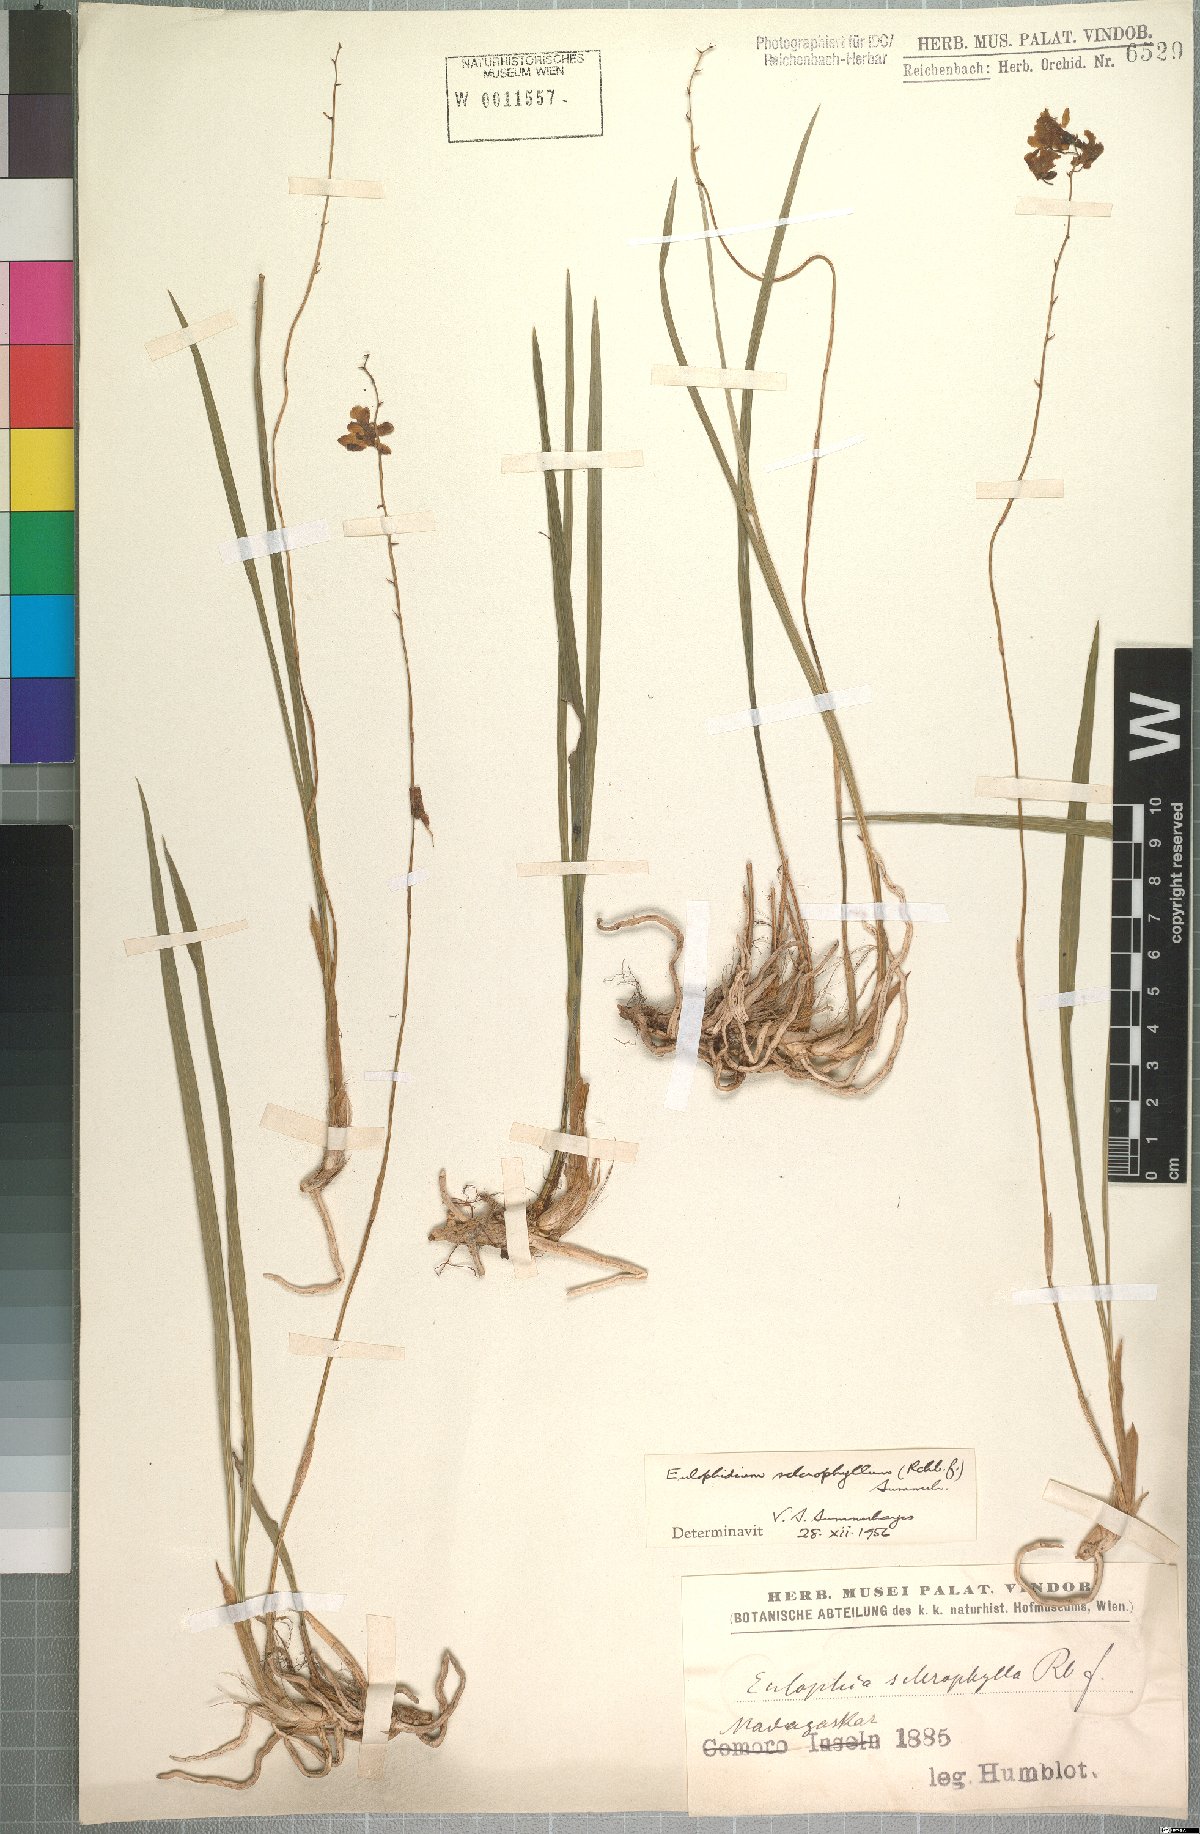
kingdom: Plantae
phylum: Tracheophyta
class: Liliopsida
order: Asparagales
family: Orchidaceae
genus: Eulophia
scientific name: Eulophia sclerophylla
